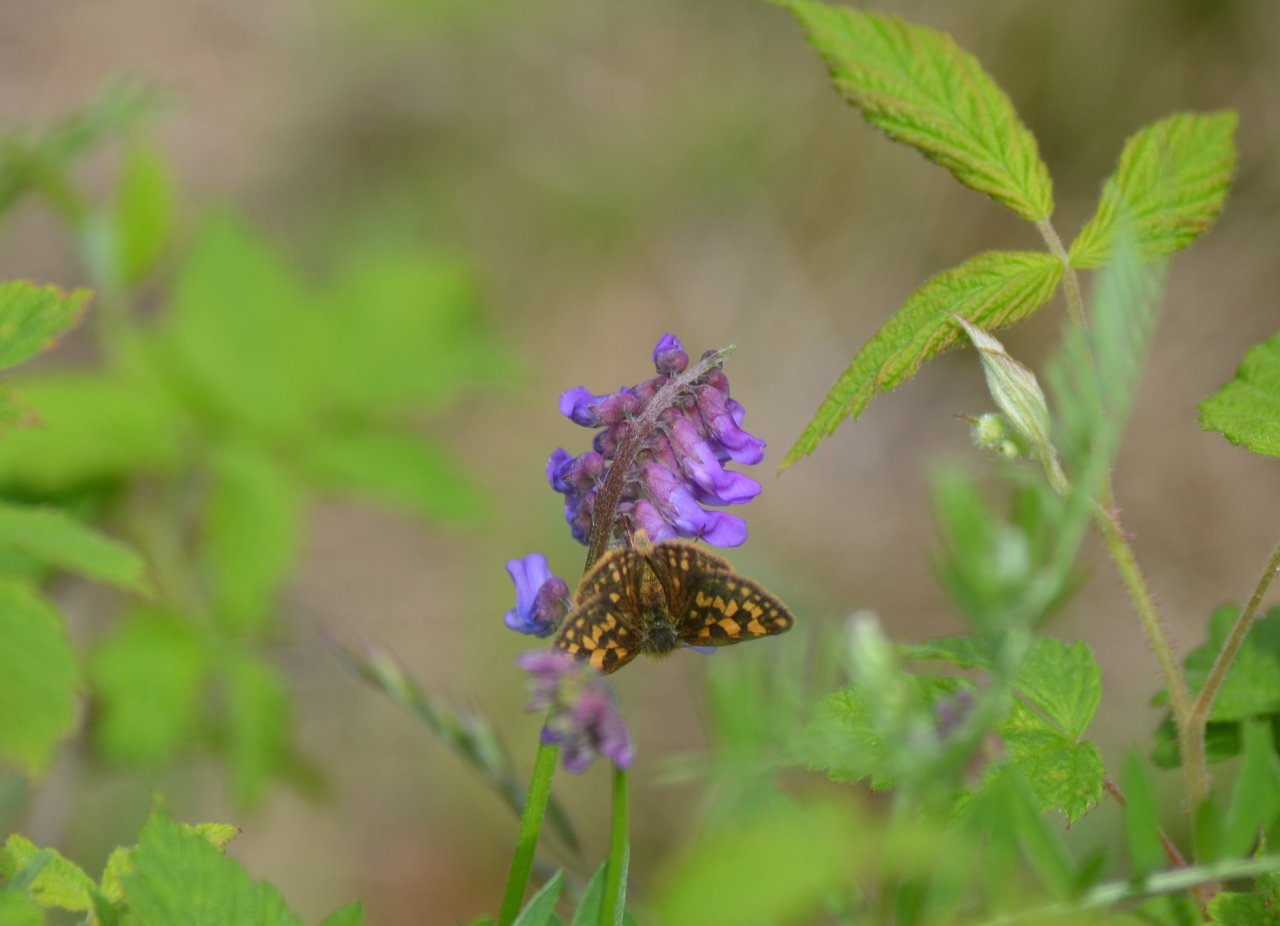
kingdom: Animalia
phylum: Arthropoda
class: Insecta
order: Lepidoptera
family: Hesperiidae
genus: Carterocephalus
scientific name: Carterocephalus palaemon
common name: Chequered Skipper
